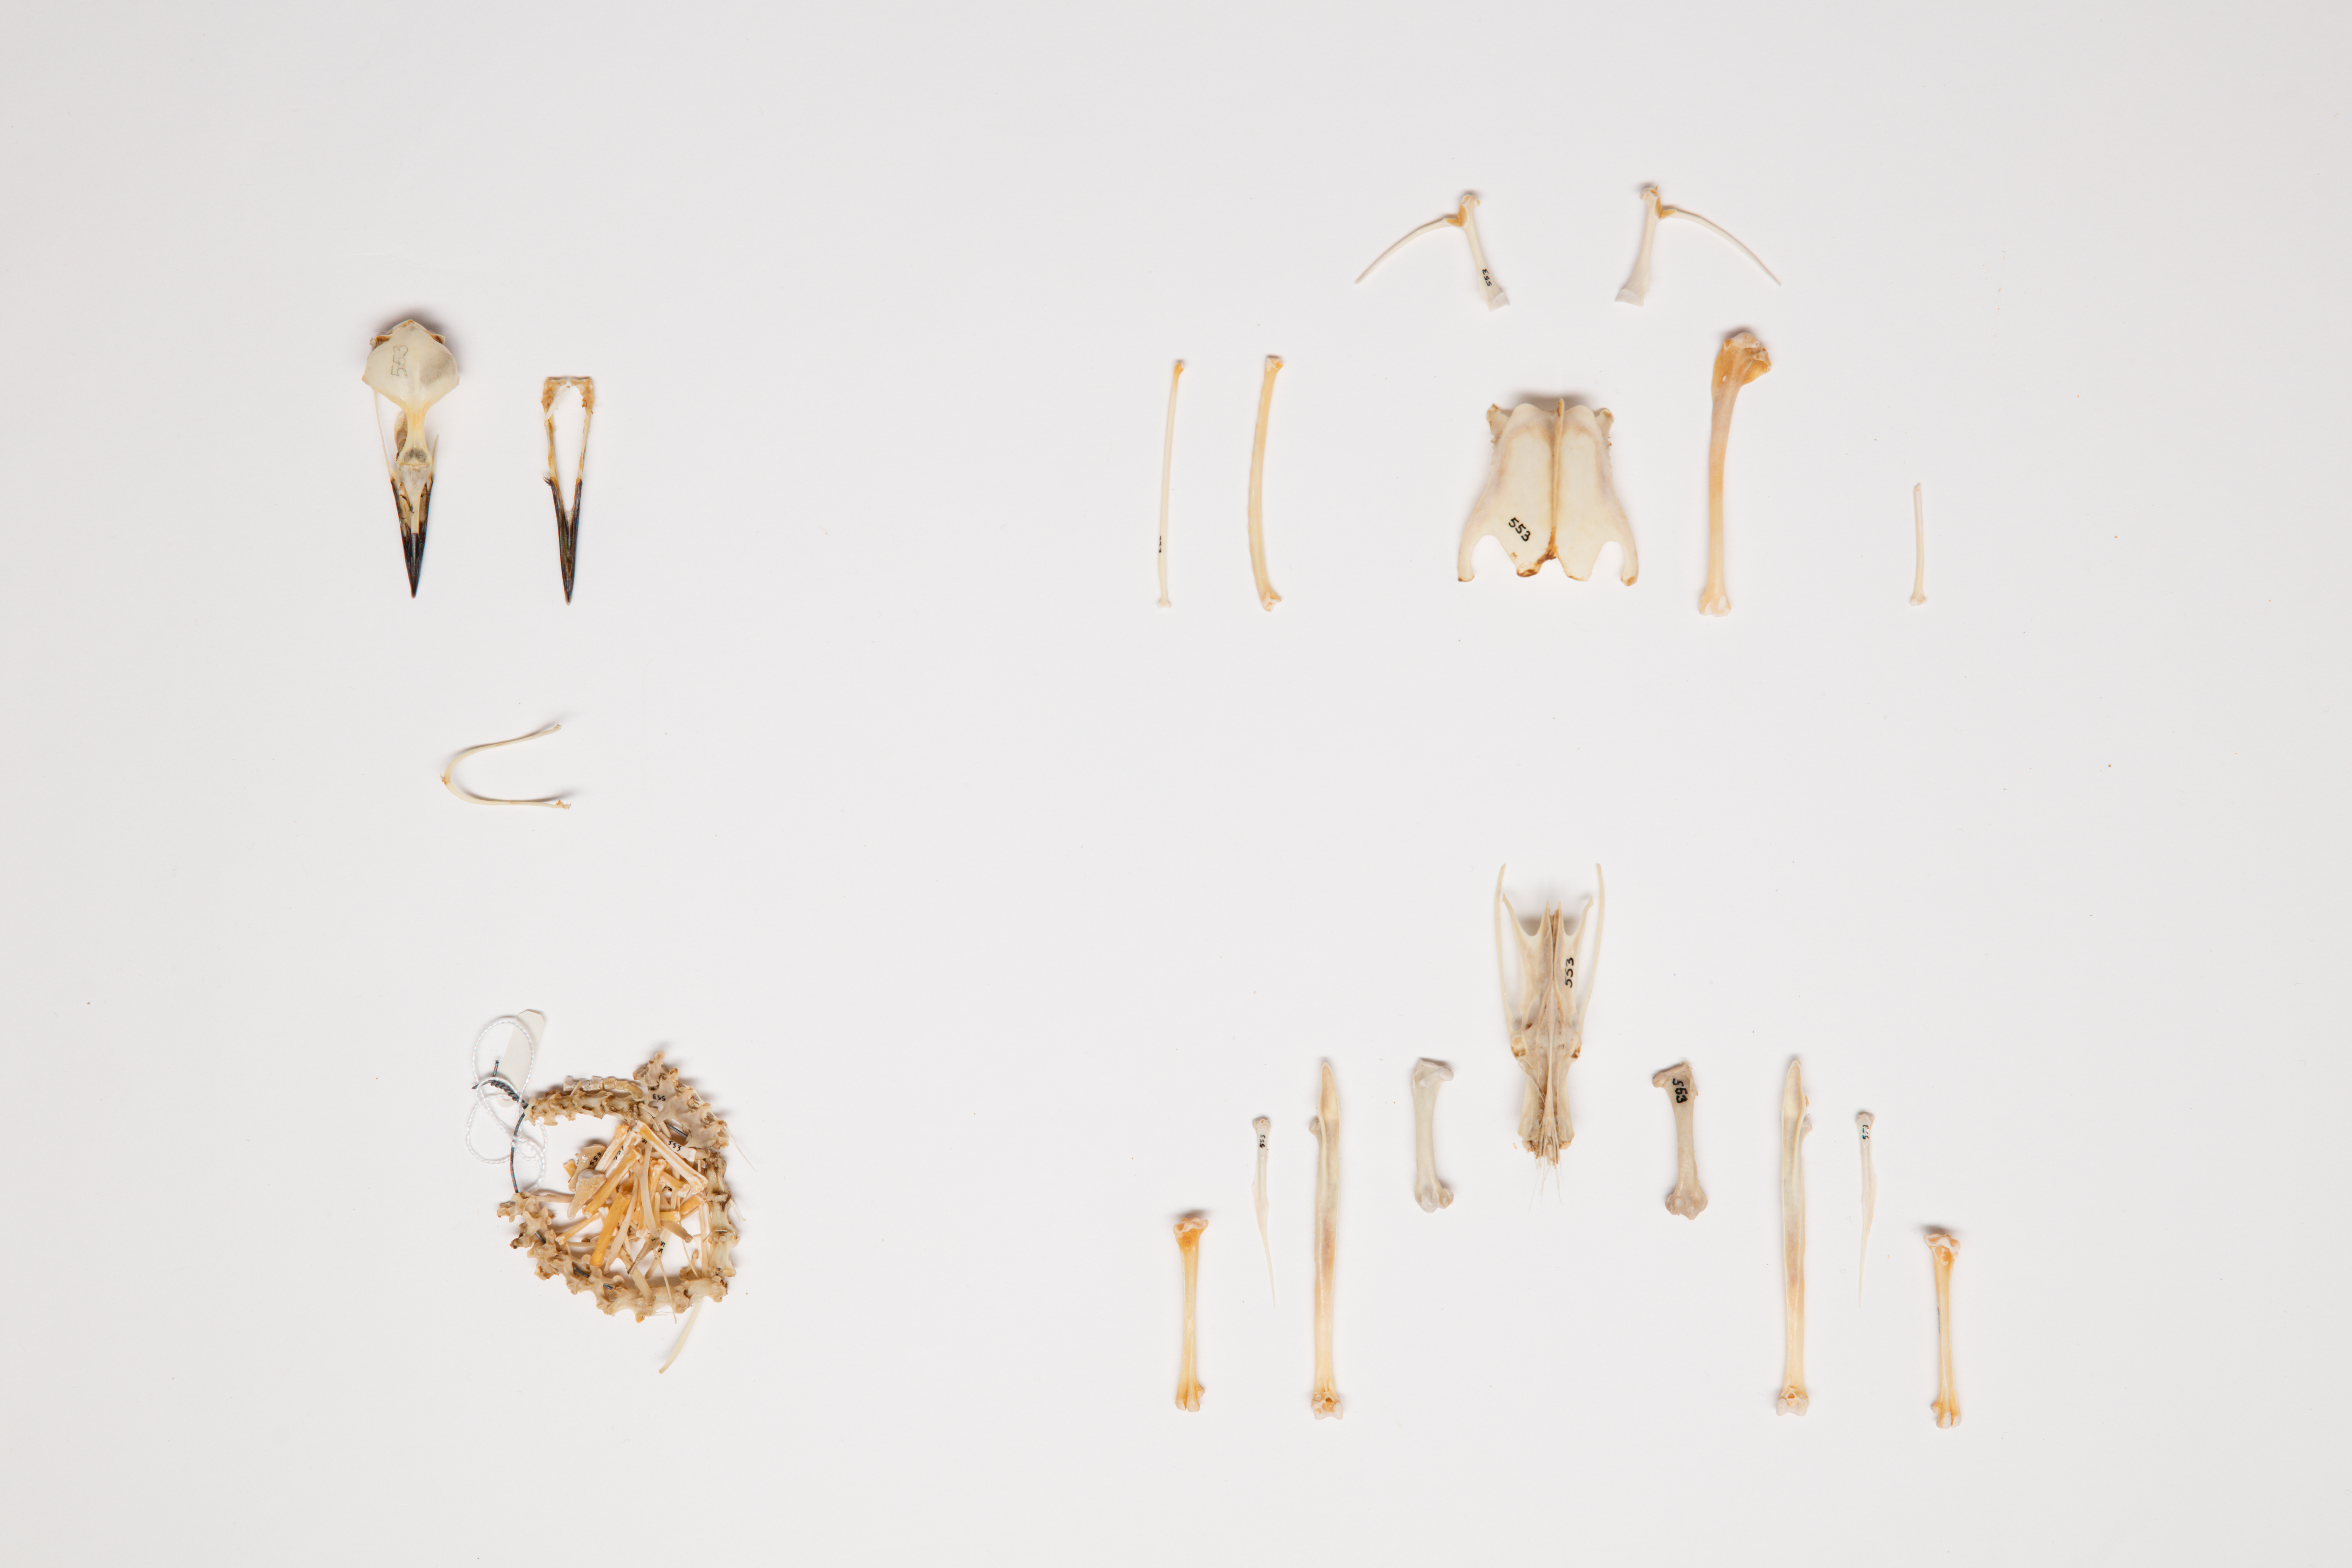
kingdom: Animalia
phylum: Chordata
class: Aves
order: Podicipediformes
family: Podicipedidae
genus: Poliocephalus
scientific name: Poliocephalus rufopectus
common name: New zealand grebe
